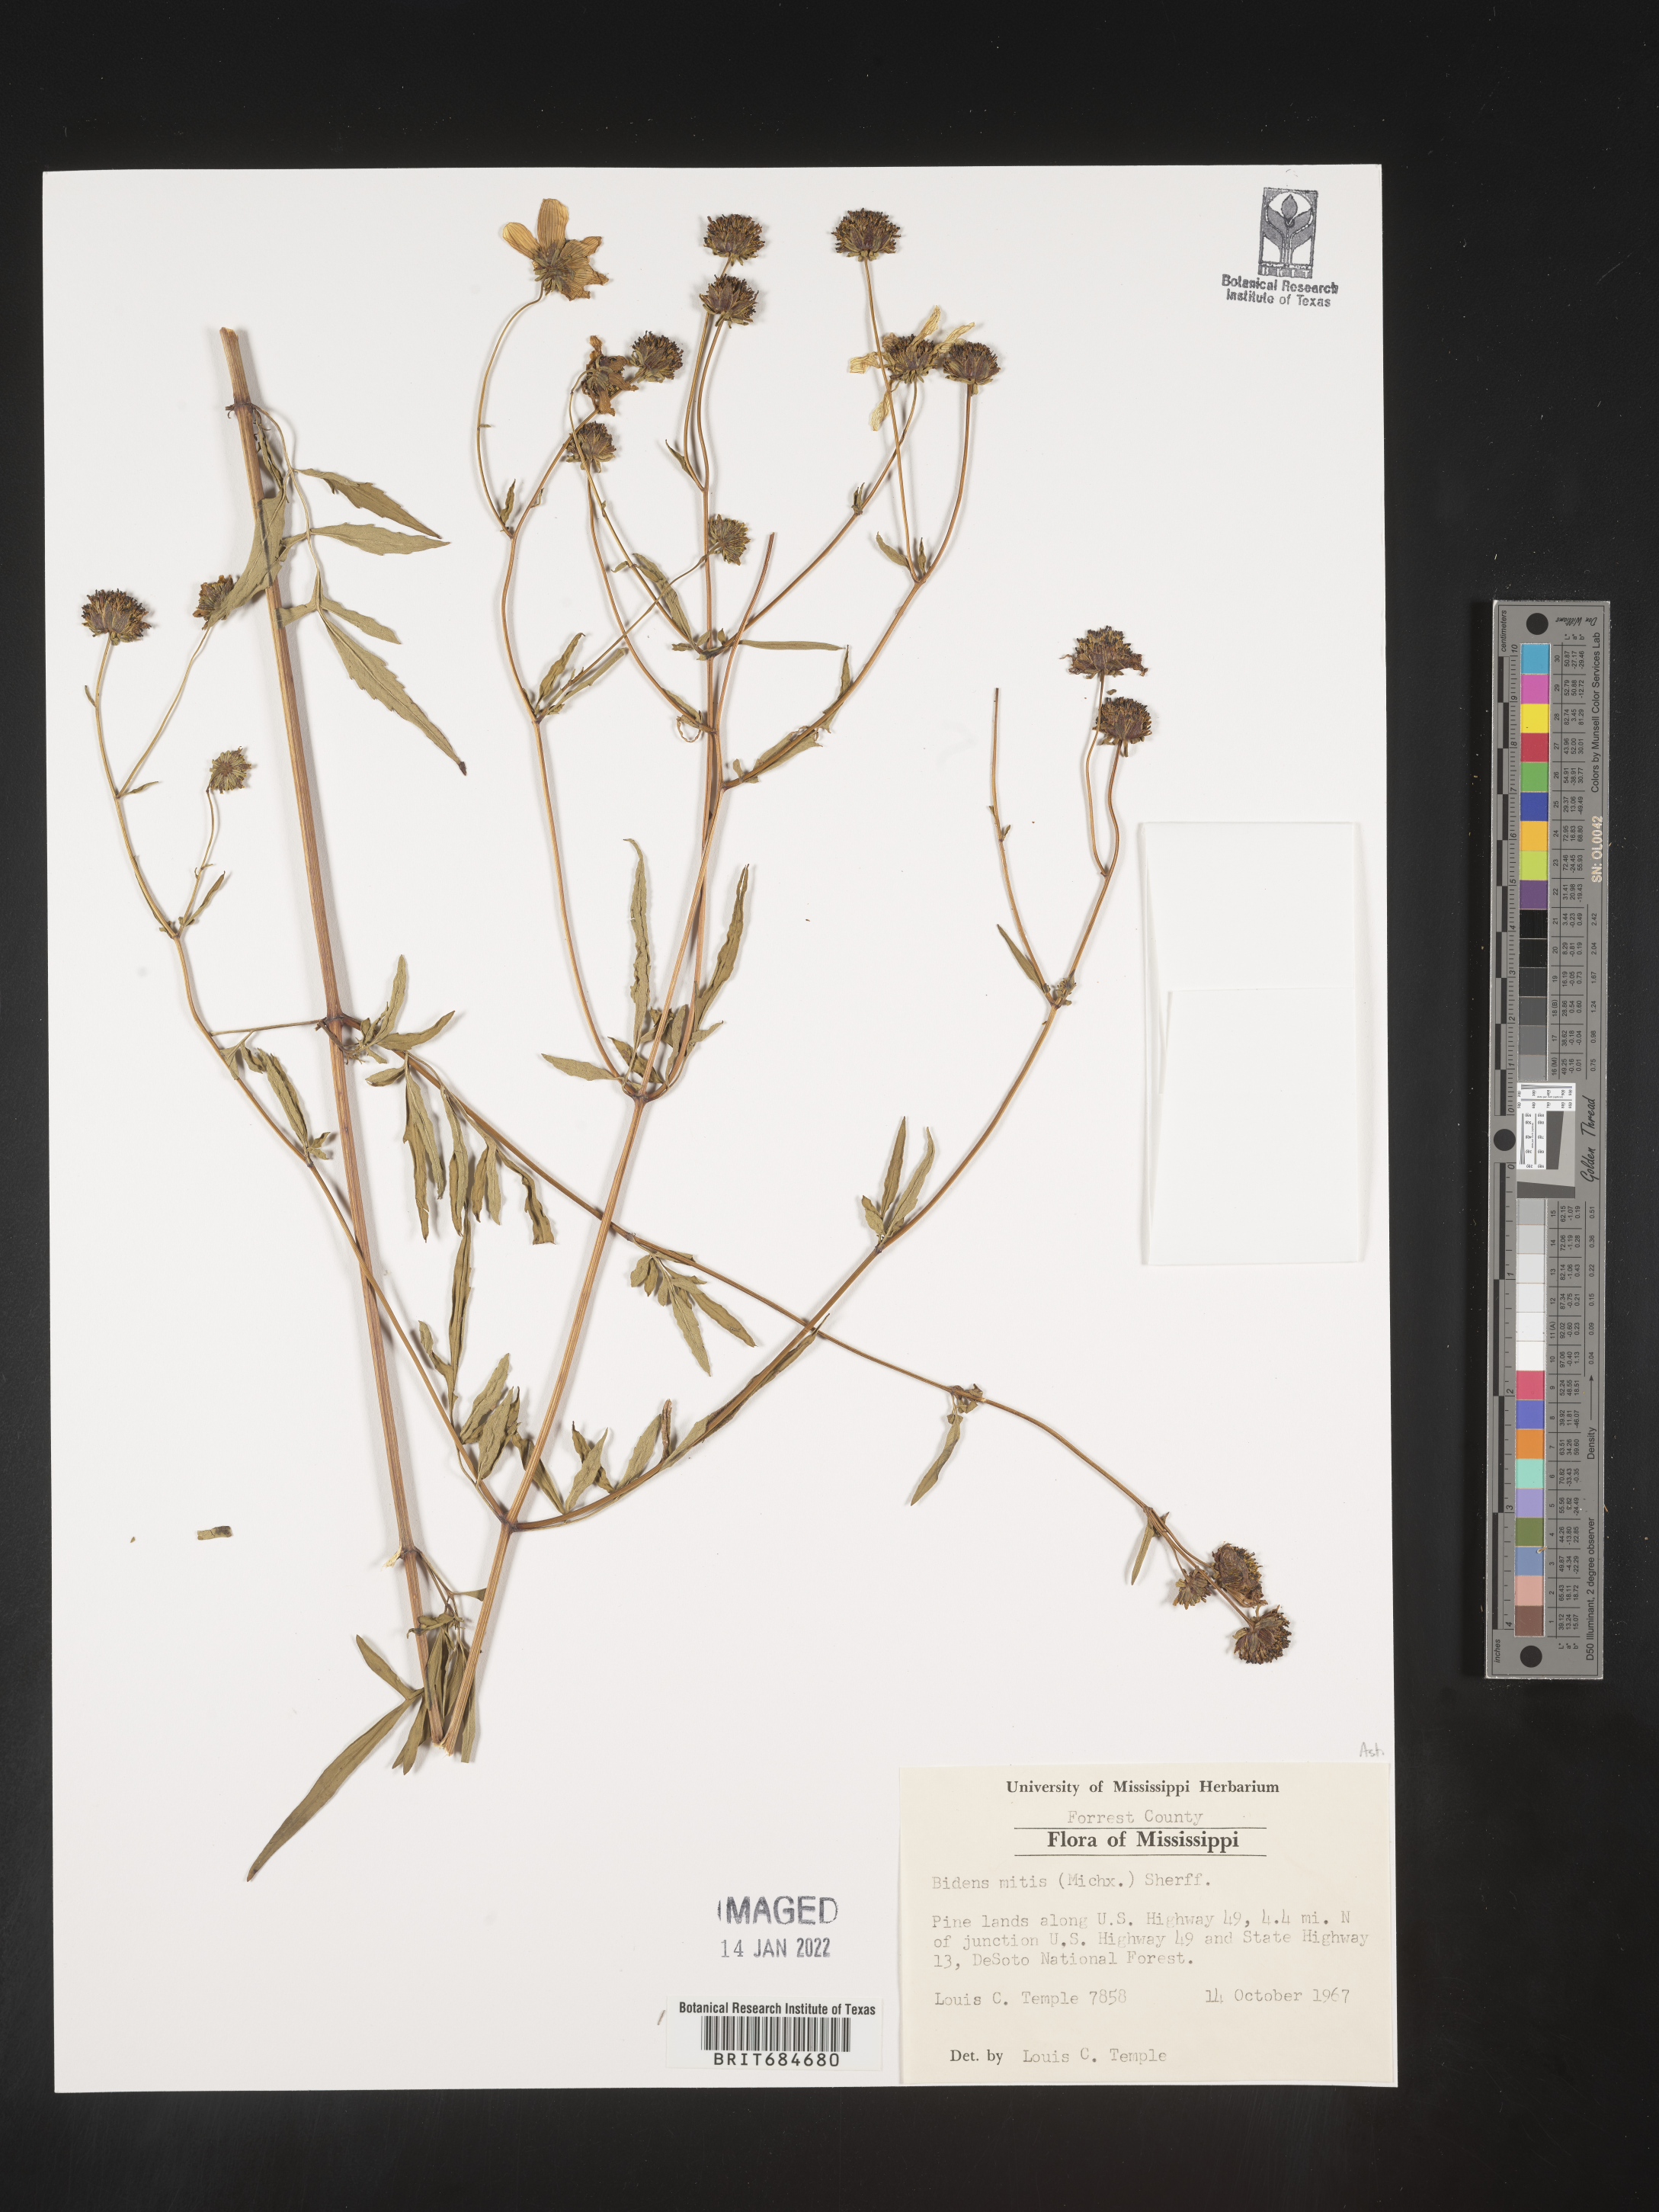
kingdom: Plantae
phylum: Tracheophyta
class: Magnoliopsida
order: Asterales
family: Asteraceae
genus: Bidens
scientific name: Bidens mitis
